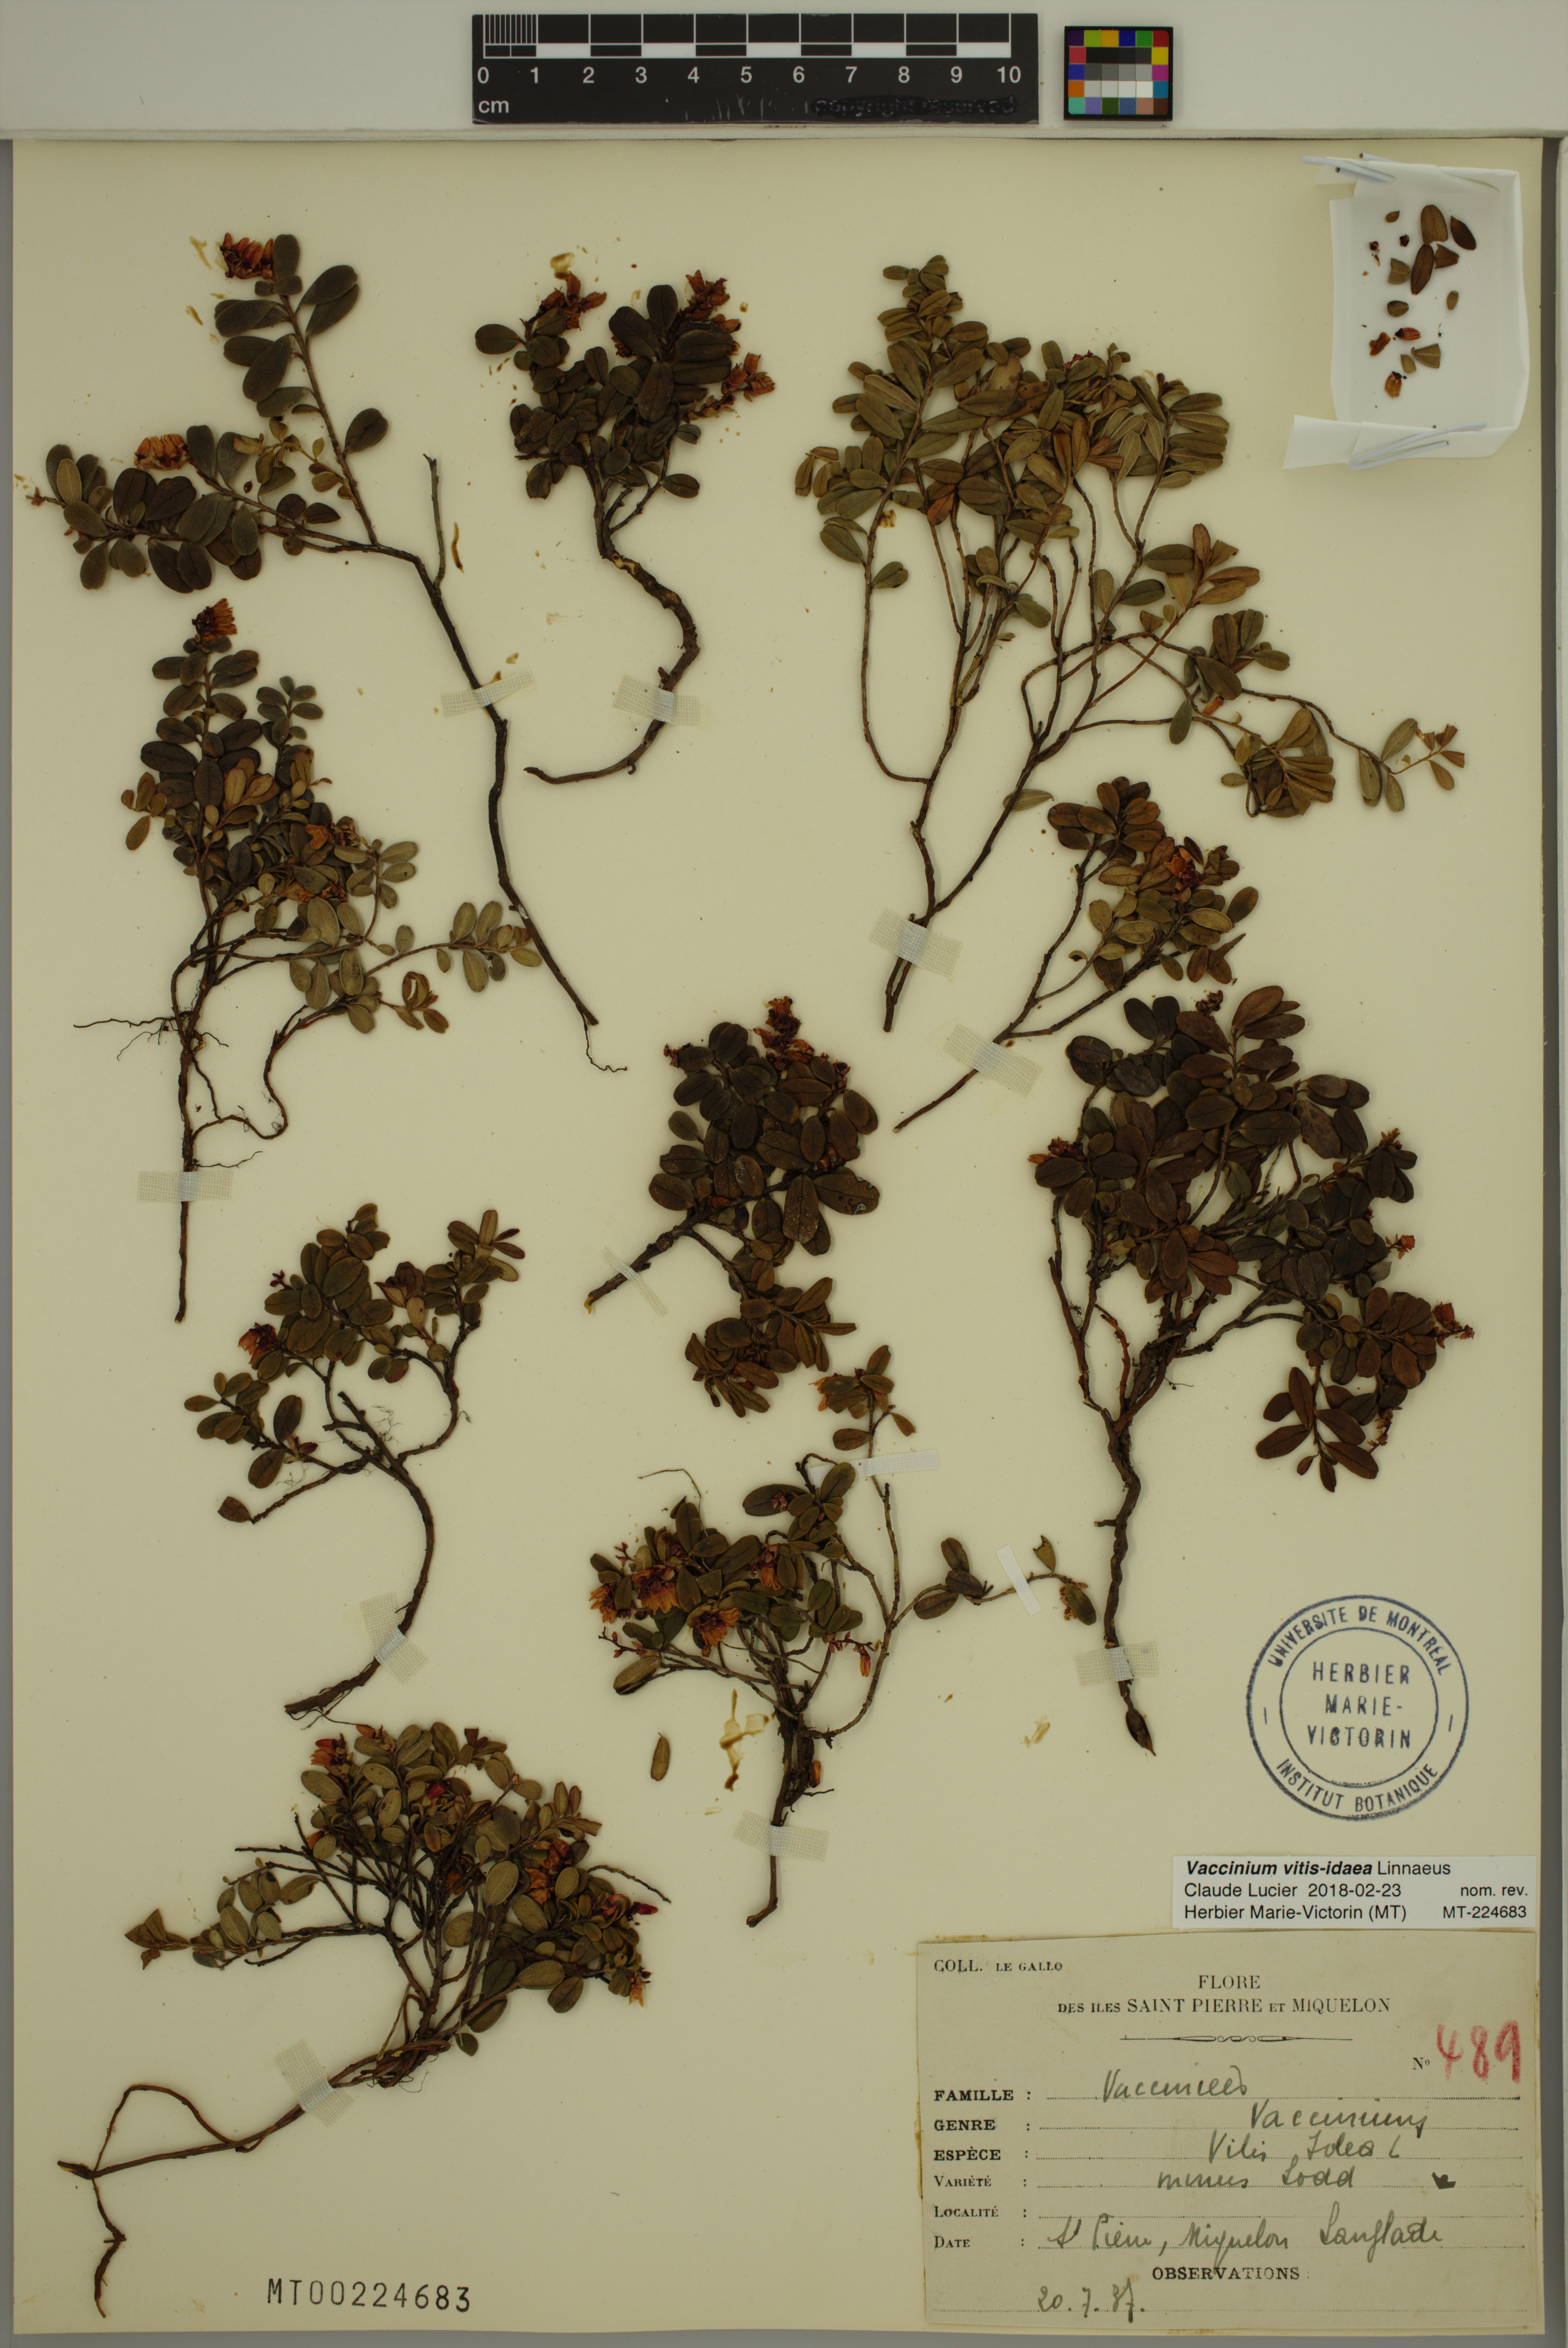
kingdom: Plantae
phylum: Tracheophyta
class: Magnoliopsida
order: Ericales
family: Ericaceae
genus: Vaccinium
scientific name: Vaccinium vitis-idaea
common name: Cowberry
